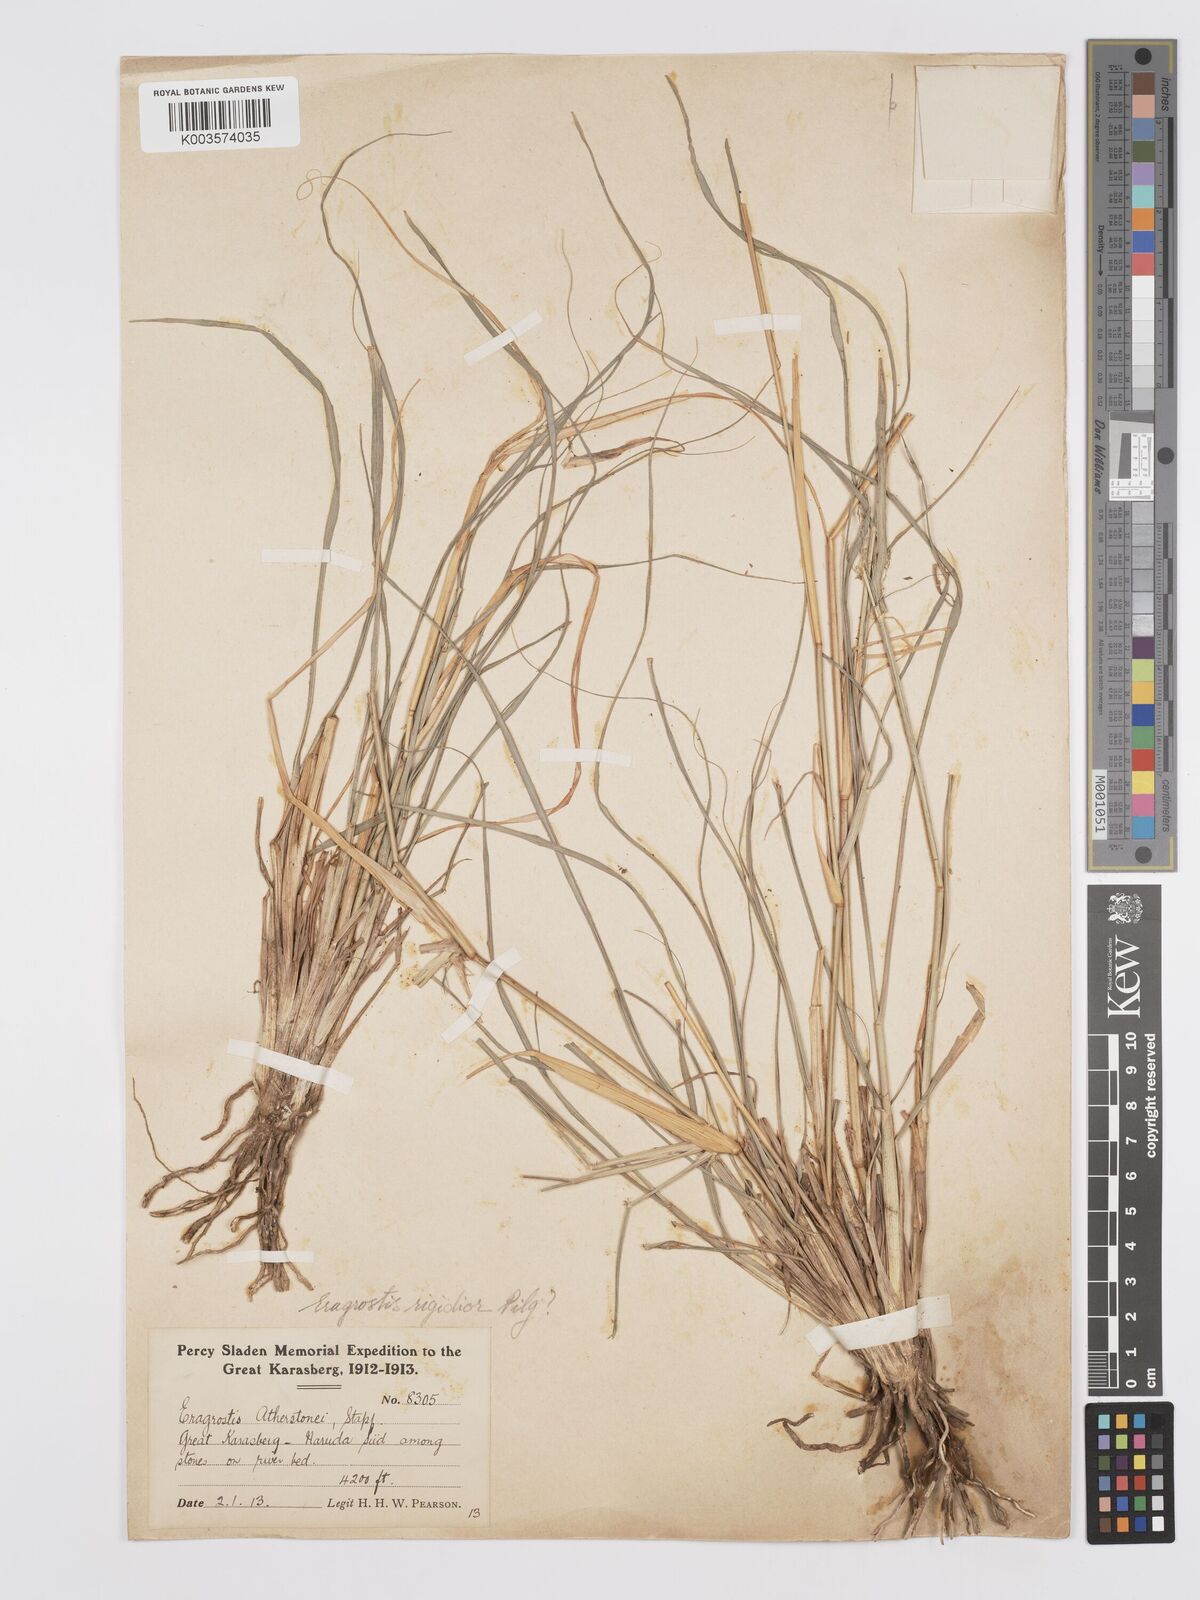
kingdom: Plantae
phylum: Tracheophyta
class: Liliopsida
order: Poales
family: Poaceae
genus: Eragrostis
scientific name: Eragrostis cylindriflora
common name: Cylinderflower lovegrass
